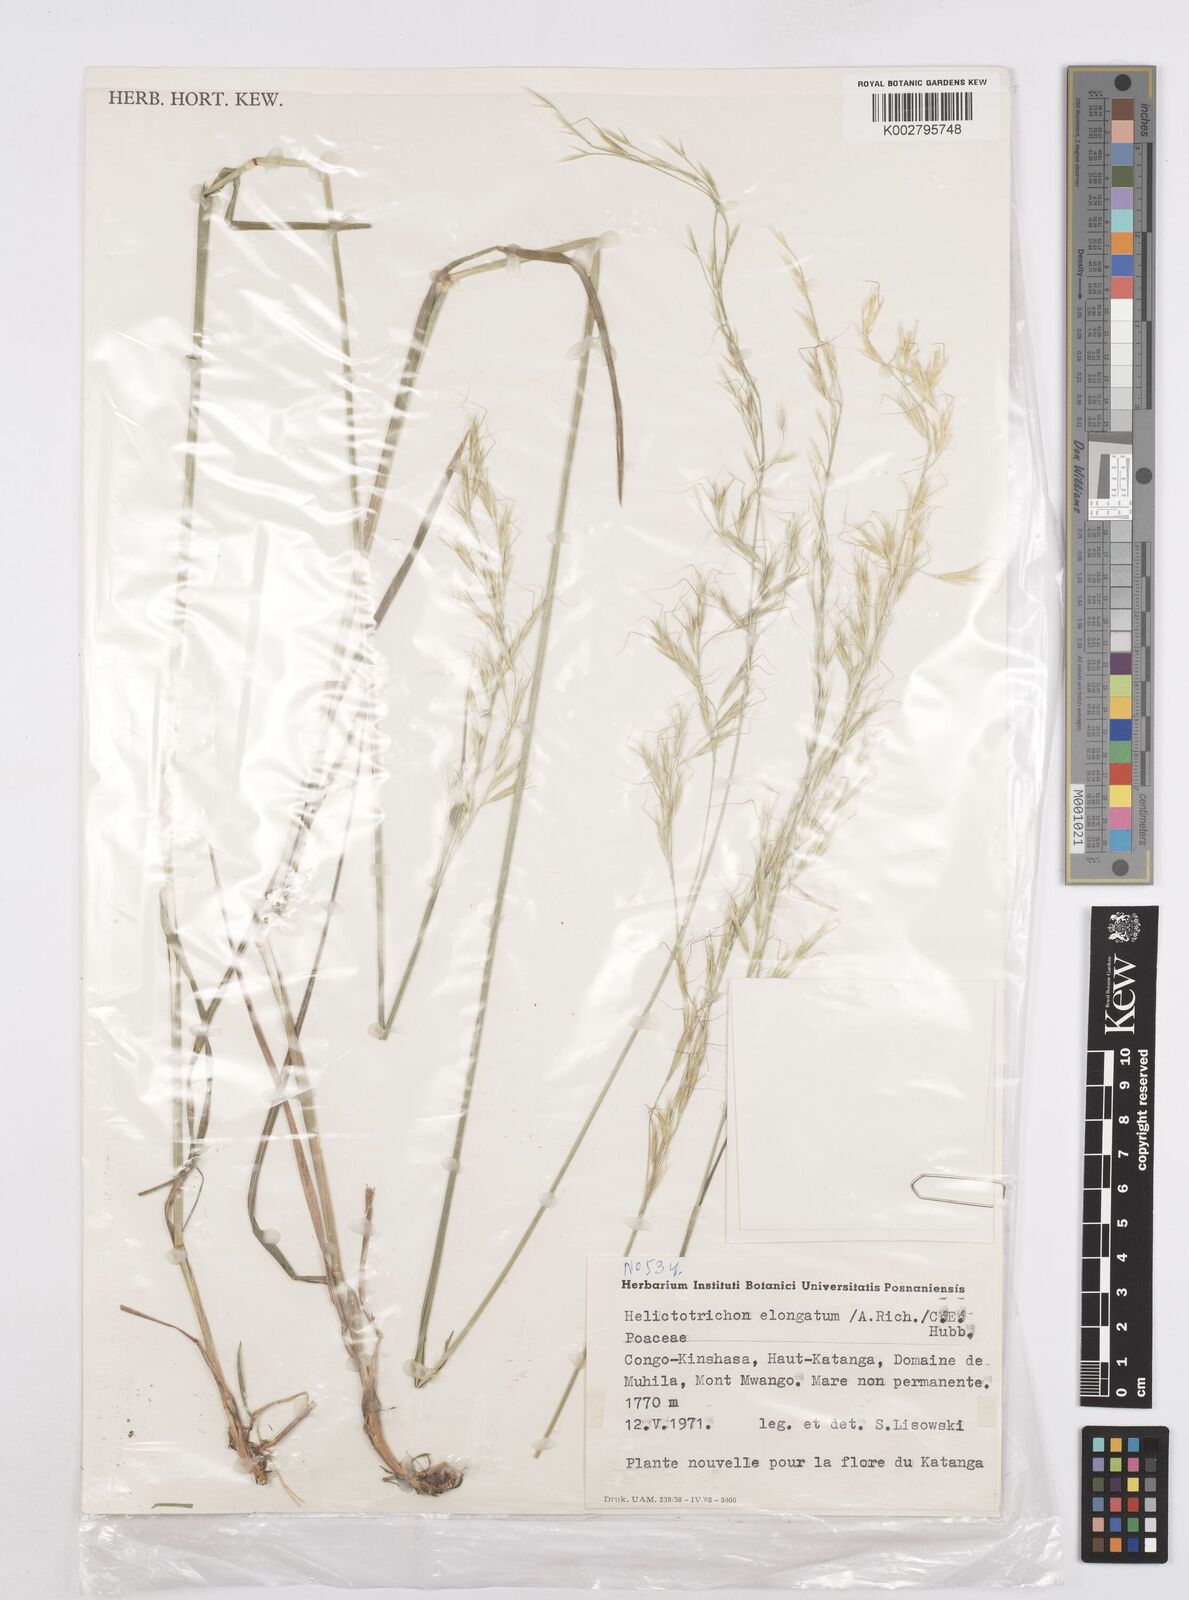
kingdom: Plantae
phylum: Tracheophyta
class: Liliopsida
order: Poales
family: Poaceae
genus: Trisetopsis
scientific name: Trisetopsis elongata
